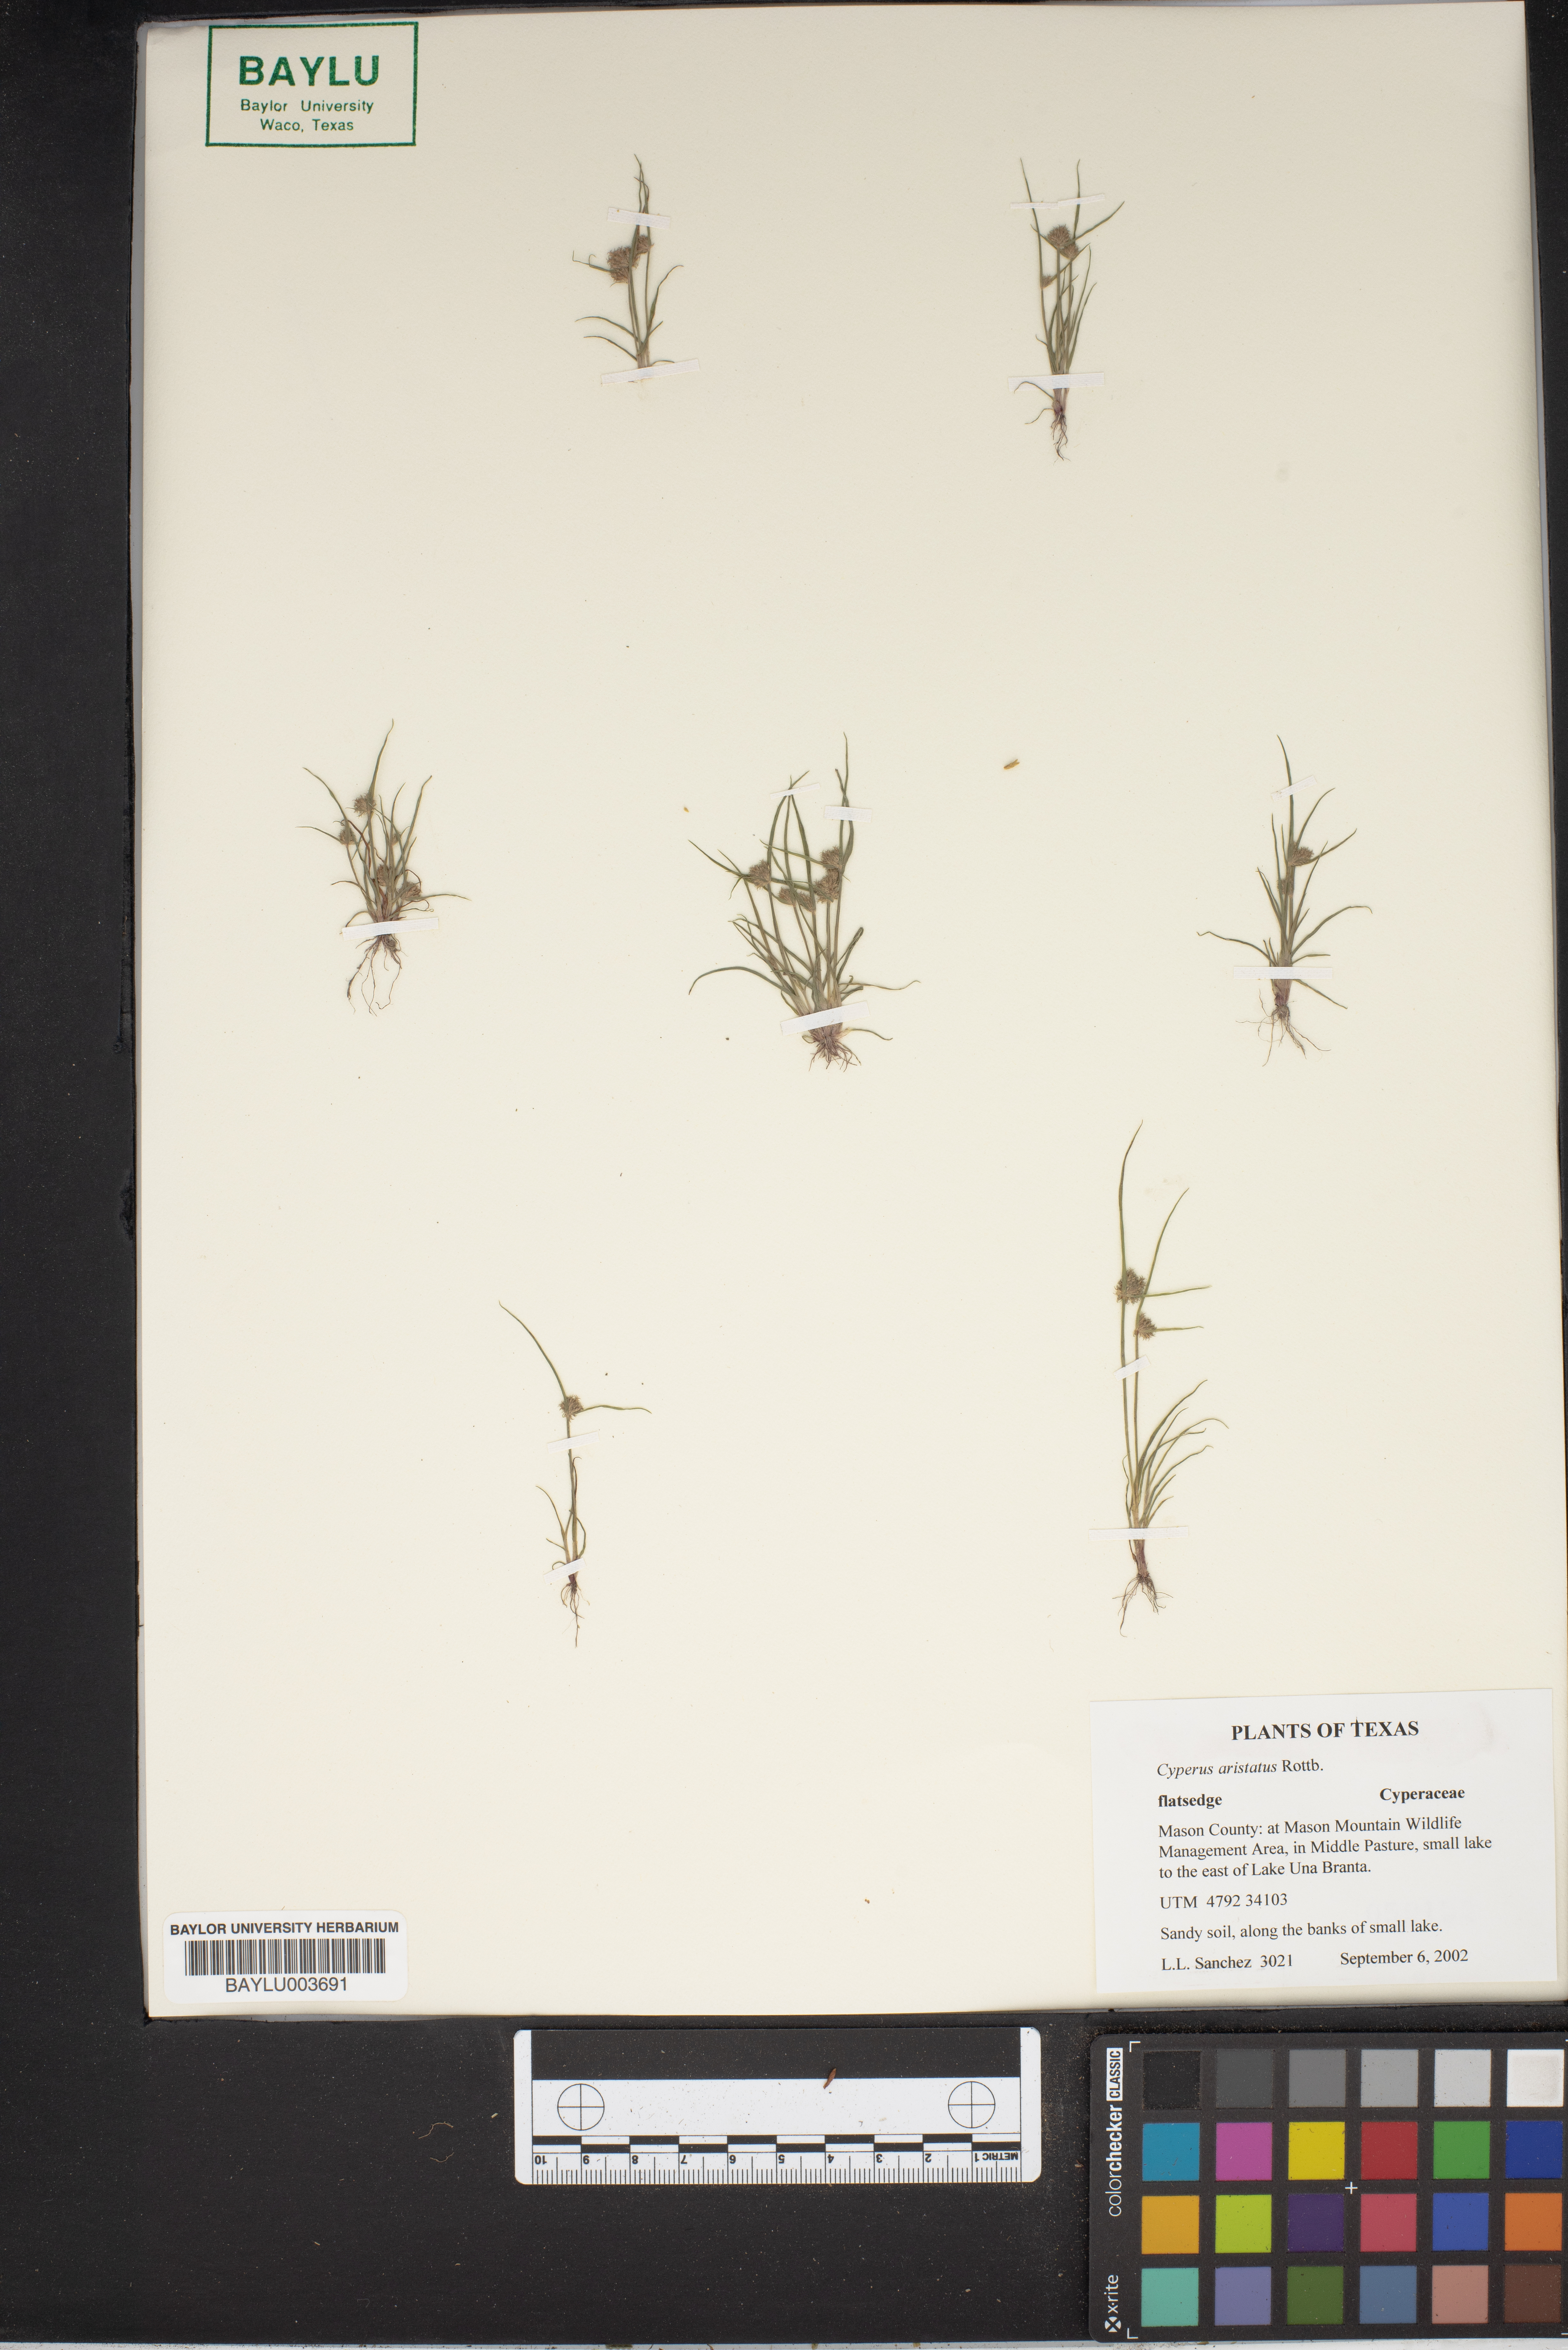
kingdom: Plantae
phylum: Tracheophyta
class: Liliopsida
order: Poales
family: Cyperaceae
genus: Cyperus
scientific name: Cyperus squarrosus
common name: Awned cyperus
